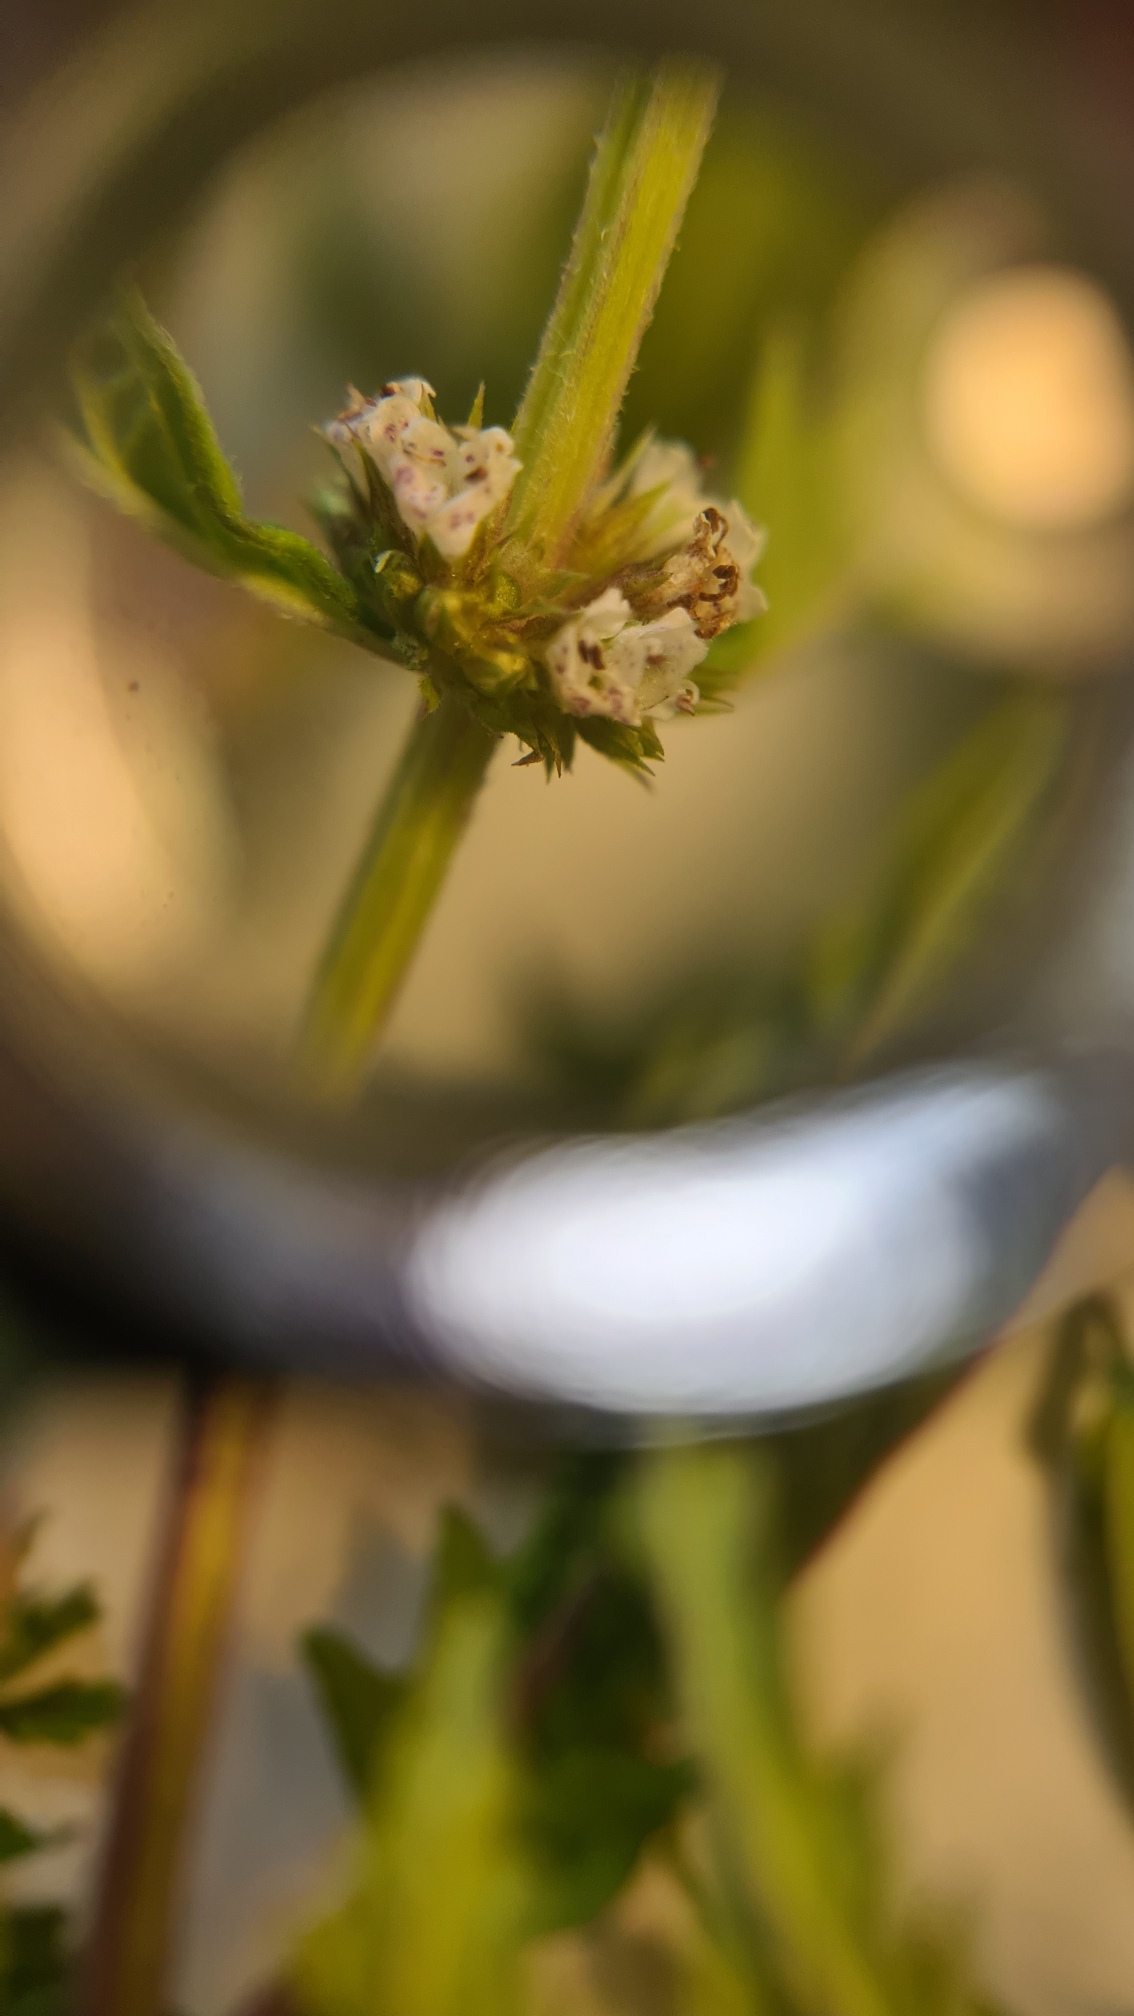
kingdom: Plantae
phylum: Tracheophyta
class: Magnoliopsida
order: Lamiales
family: Lamiaceae
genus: Lycopus
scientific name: Lycopus europaeus
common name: Sværtevæld
